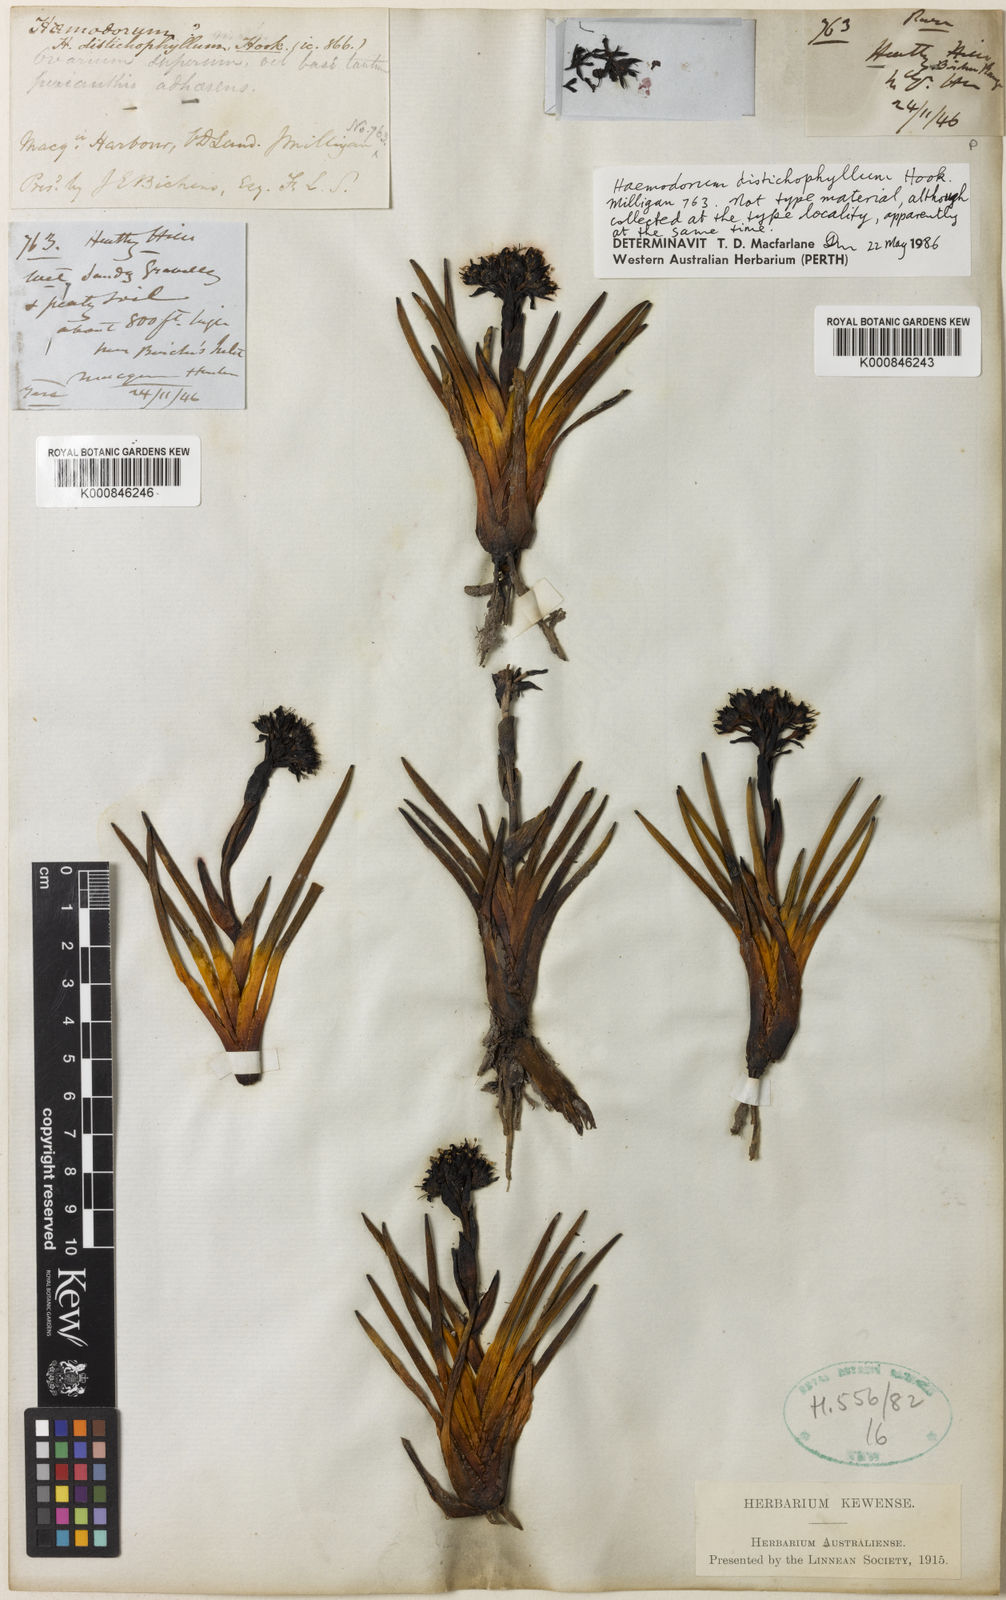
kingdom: Plantae
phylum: Tracheophyta
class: Liliopsida
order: Commelinales
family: Haemodoraceae
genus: Haemodorum
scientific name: Haemodorum distichophyllum
